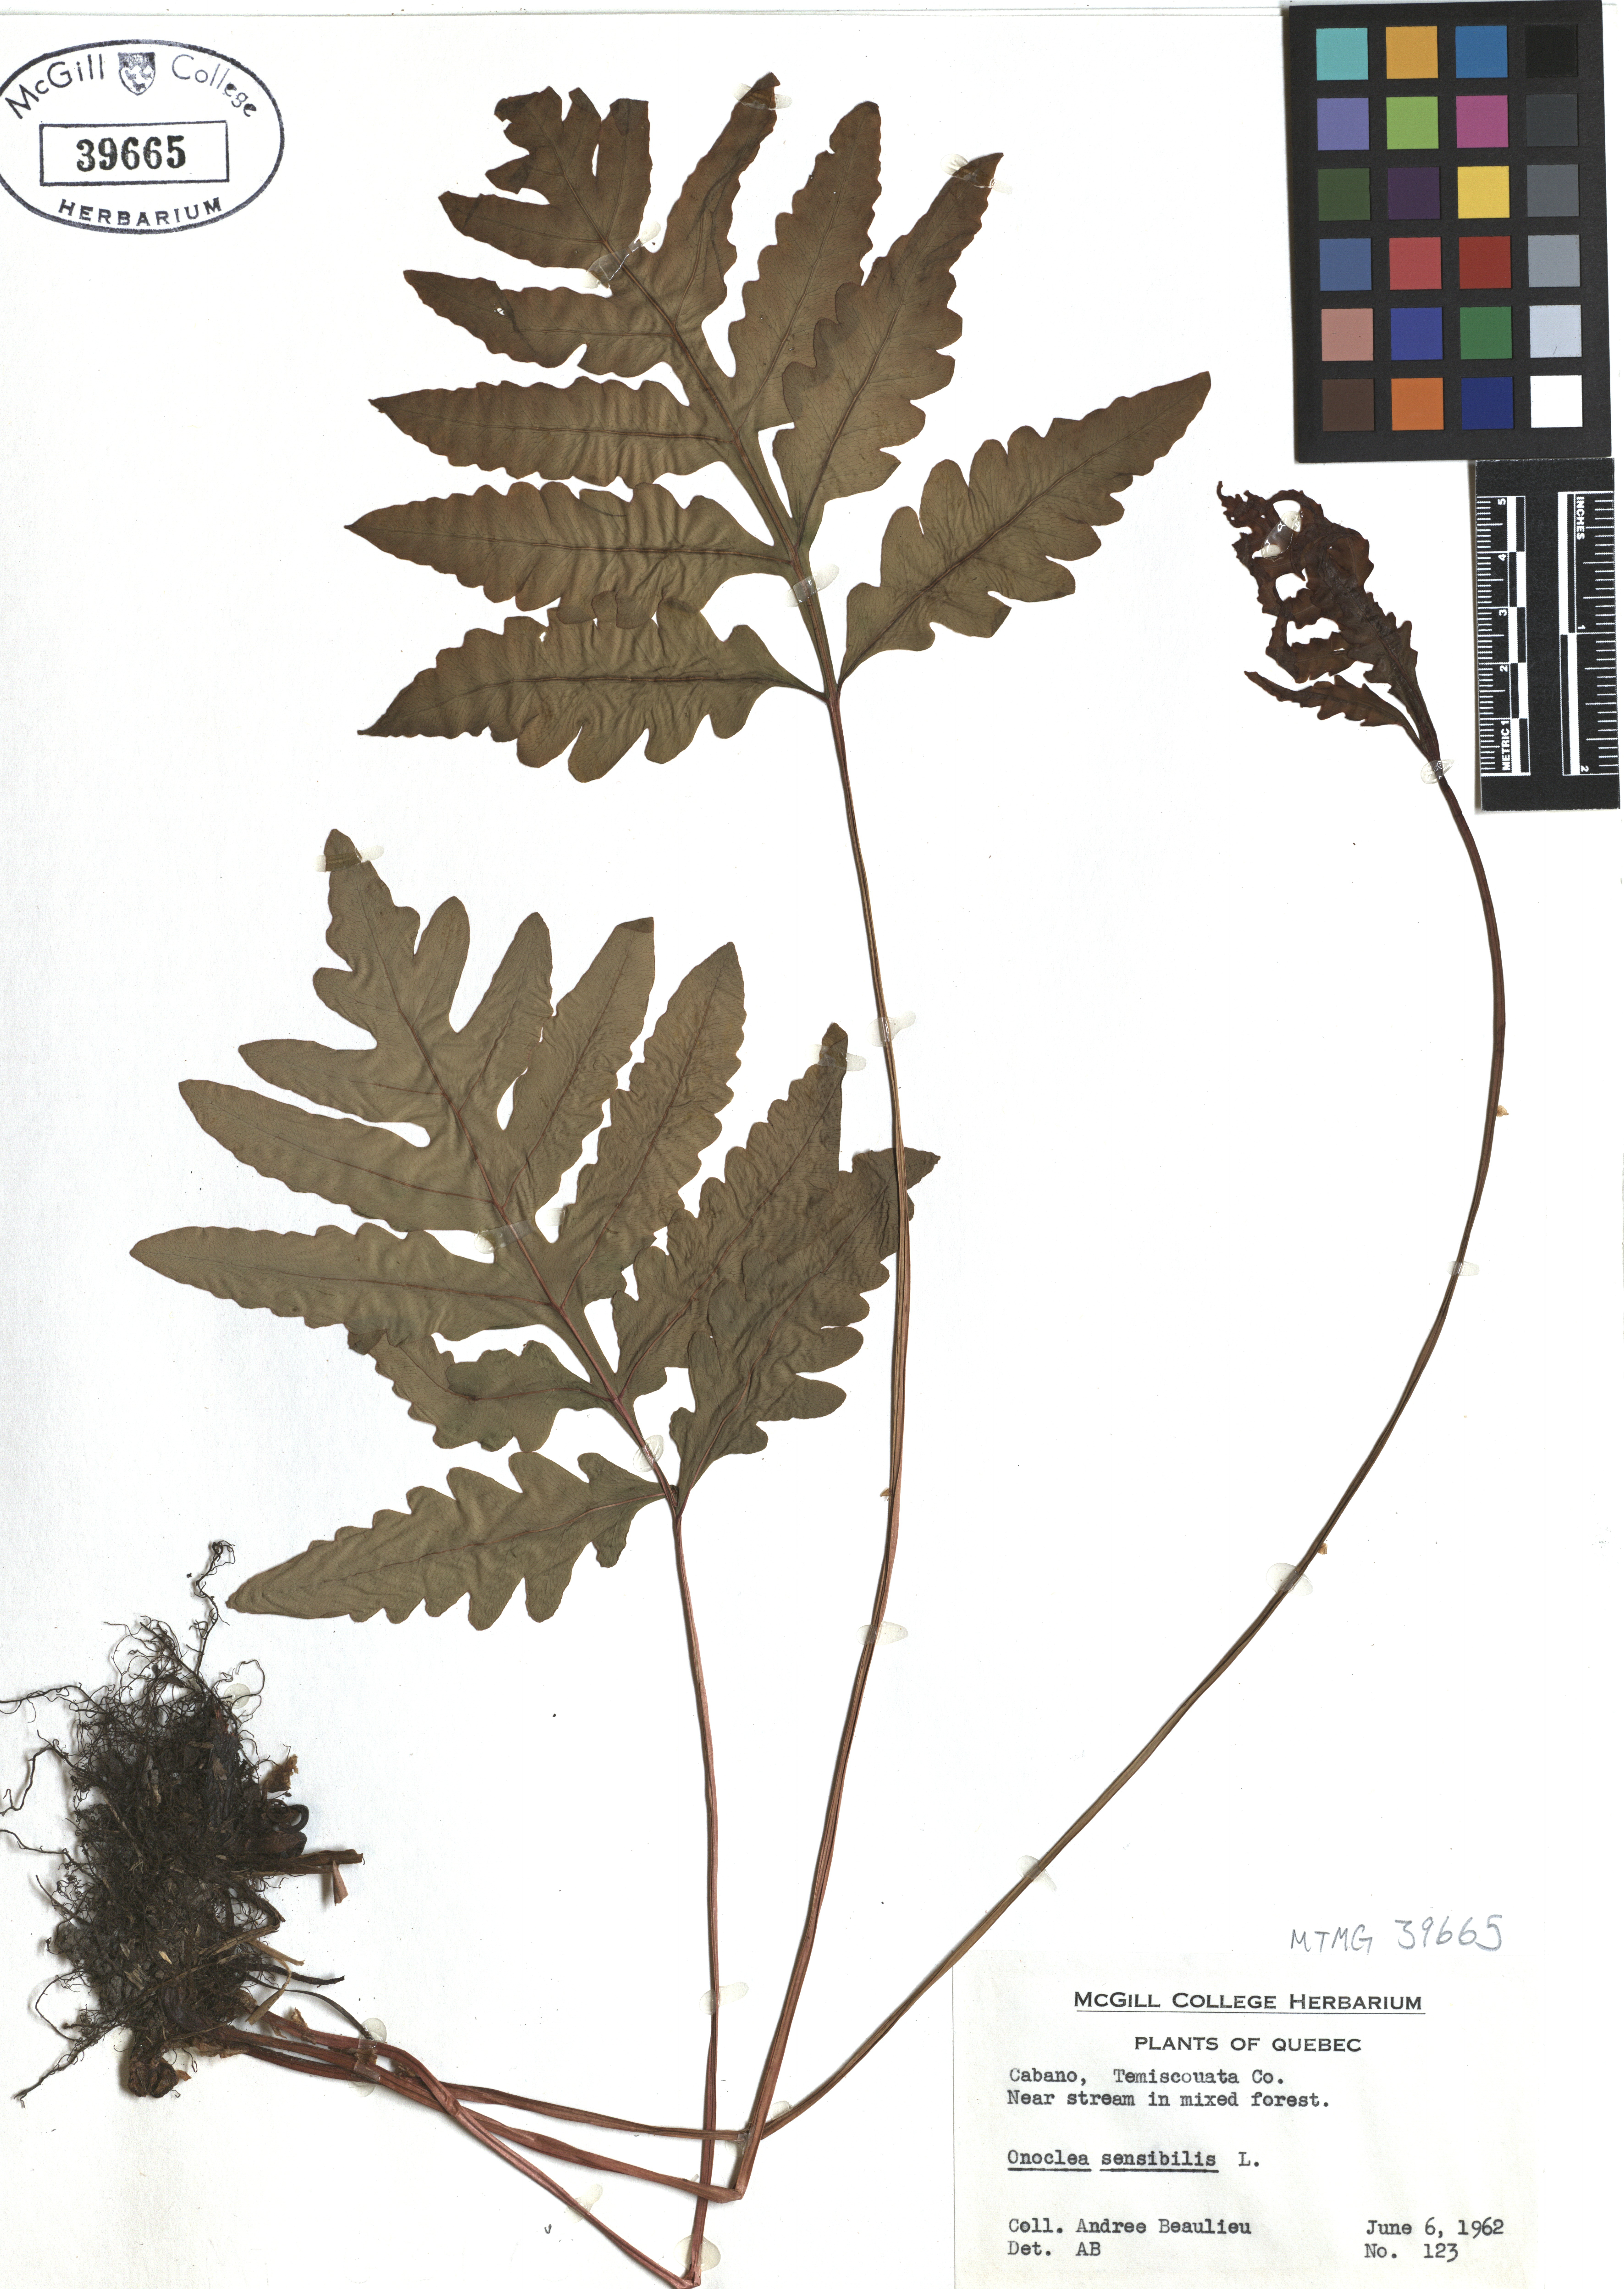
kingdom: Plantae
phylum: Tracheophyta
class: Polypodiopsida
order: Polypodiales
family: Onocleaceae
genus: Onoclea
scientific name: Onoclea sensibilis
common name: Sensitive fern
